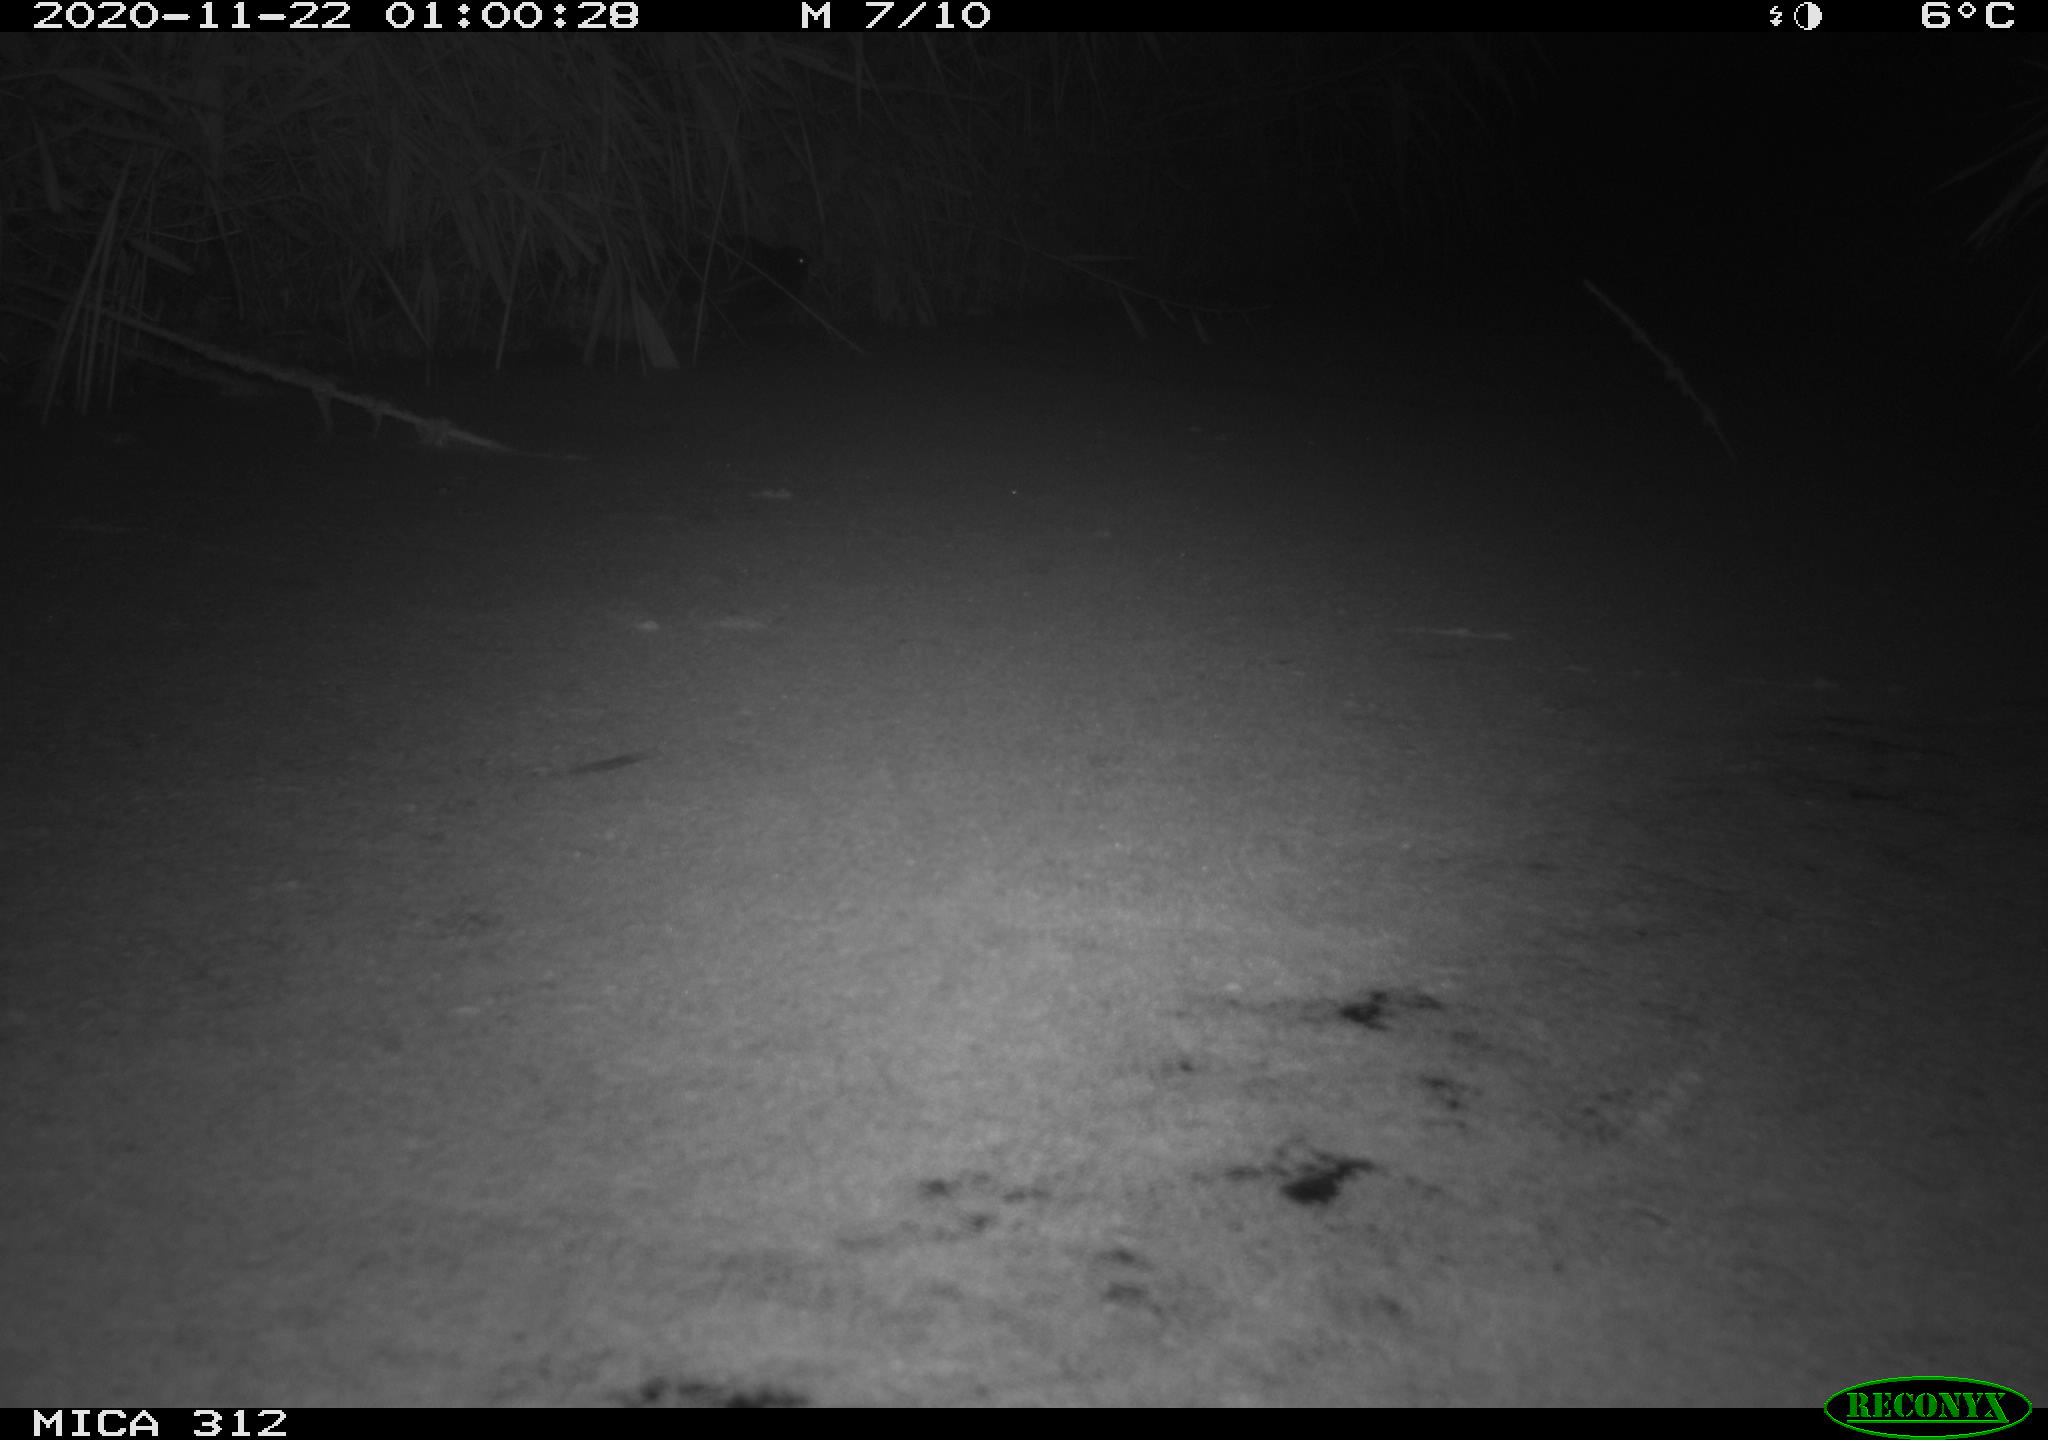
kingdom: Animalia
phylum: Chordata
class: Aves
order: Gruiformes
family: Rallidae
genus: Gallinula
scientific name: Gallinula chloropus
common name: Common moorhen
